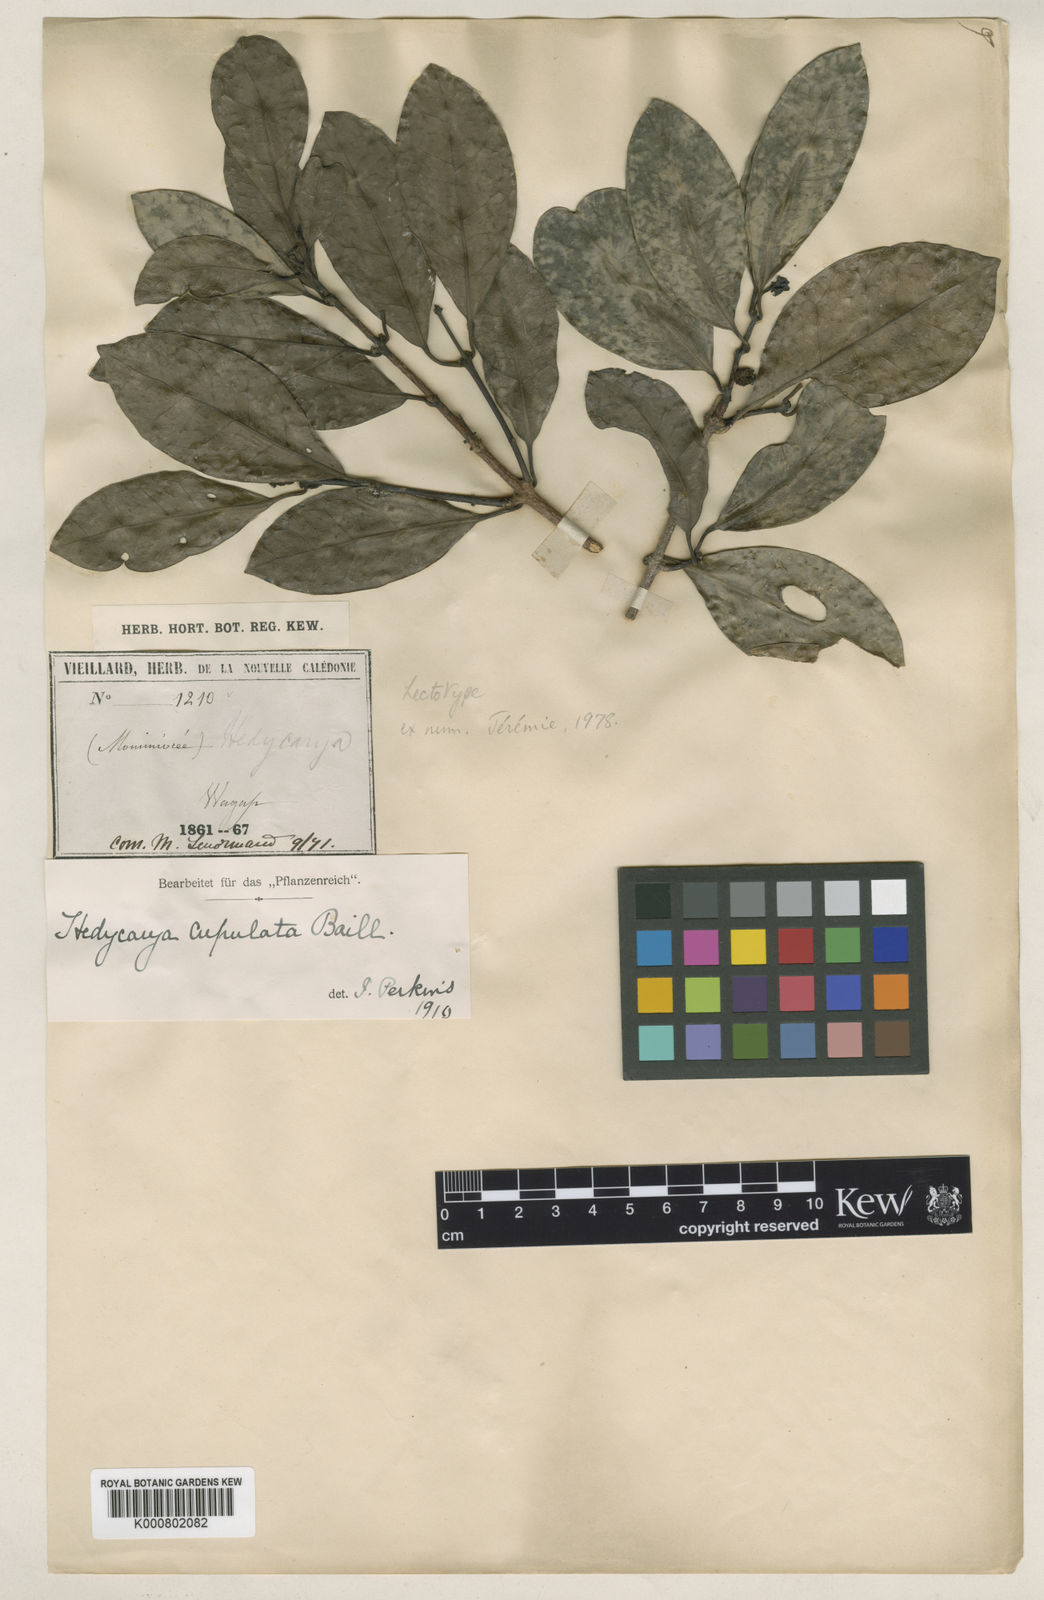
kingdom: Plantae
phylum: Tracheophyta
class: Magnoliopsida
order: Laurales
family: Monimiaceae
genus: Hedycarya
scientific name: Hedycarya cupulata
